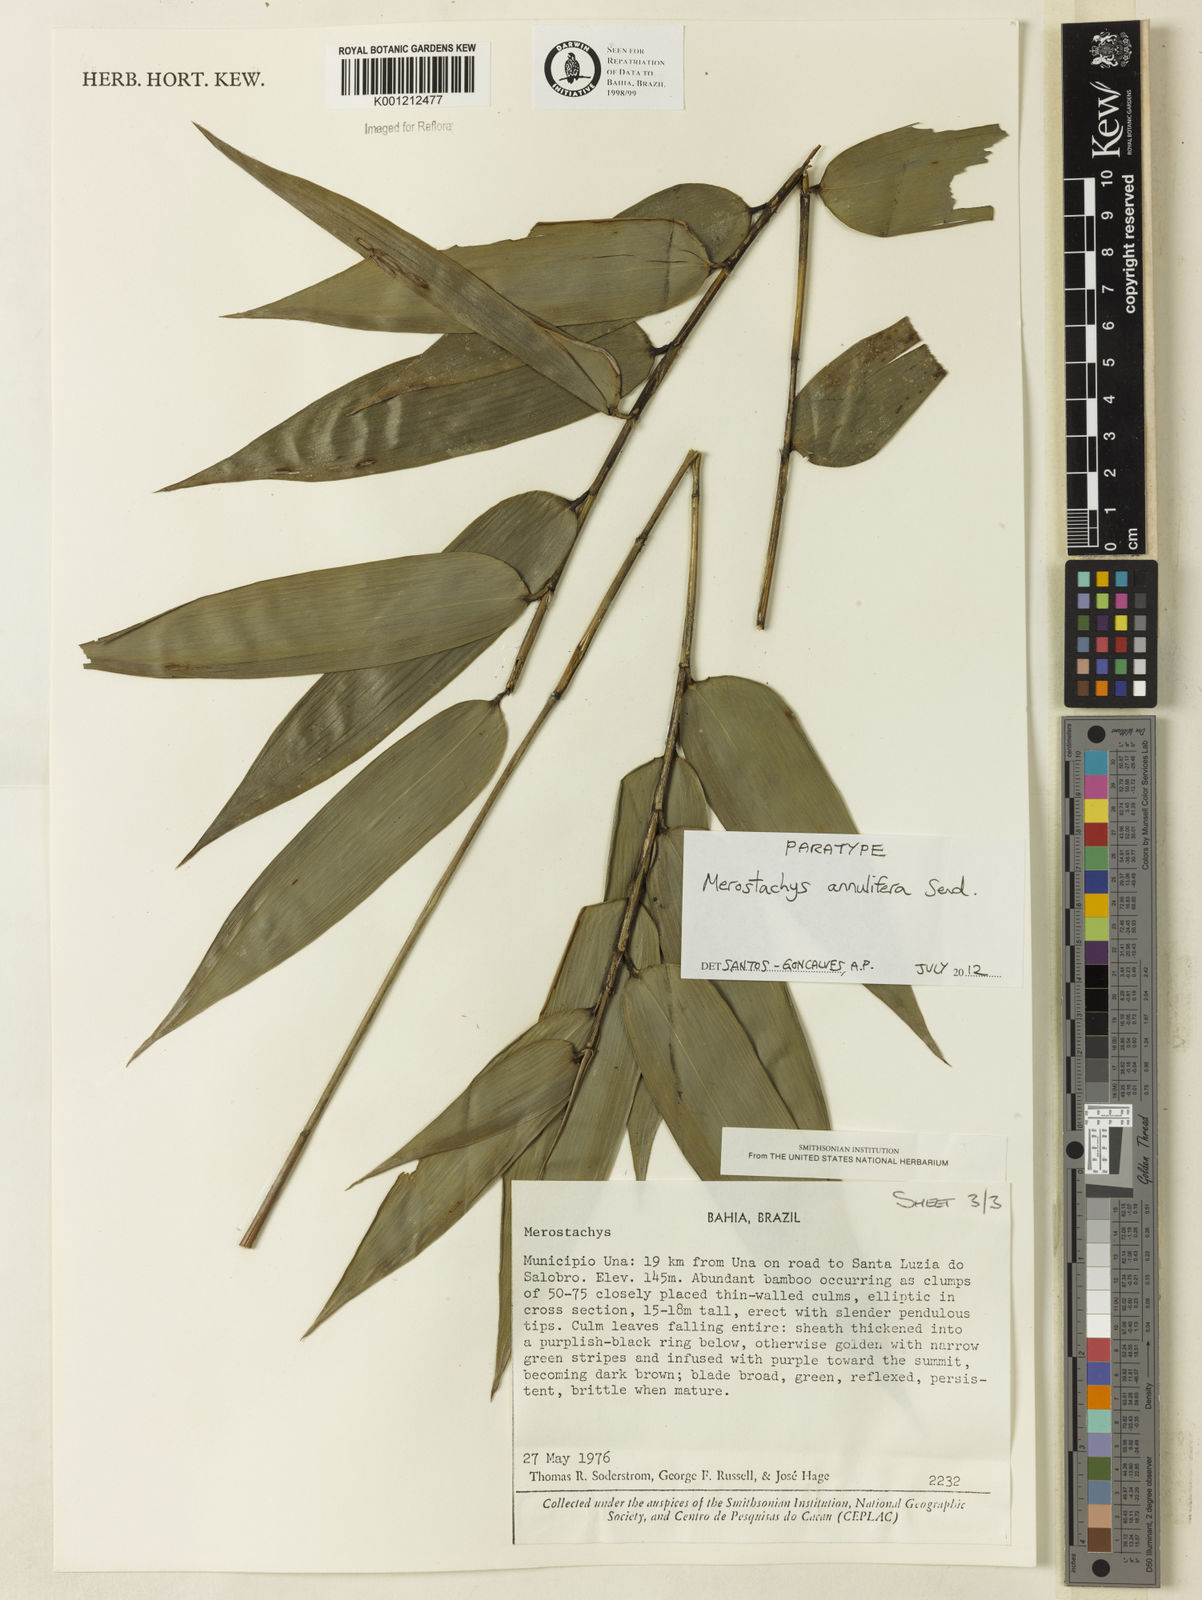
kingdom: Plantae
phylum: Tracheophyta
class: Liliopsida
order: Poales
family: Poaceae
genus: Merostachys
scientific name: Merostachys annulifera
